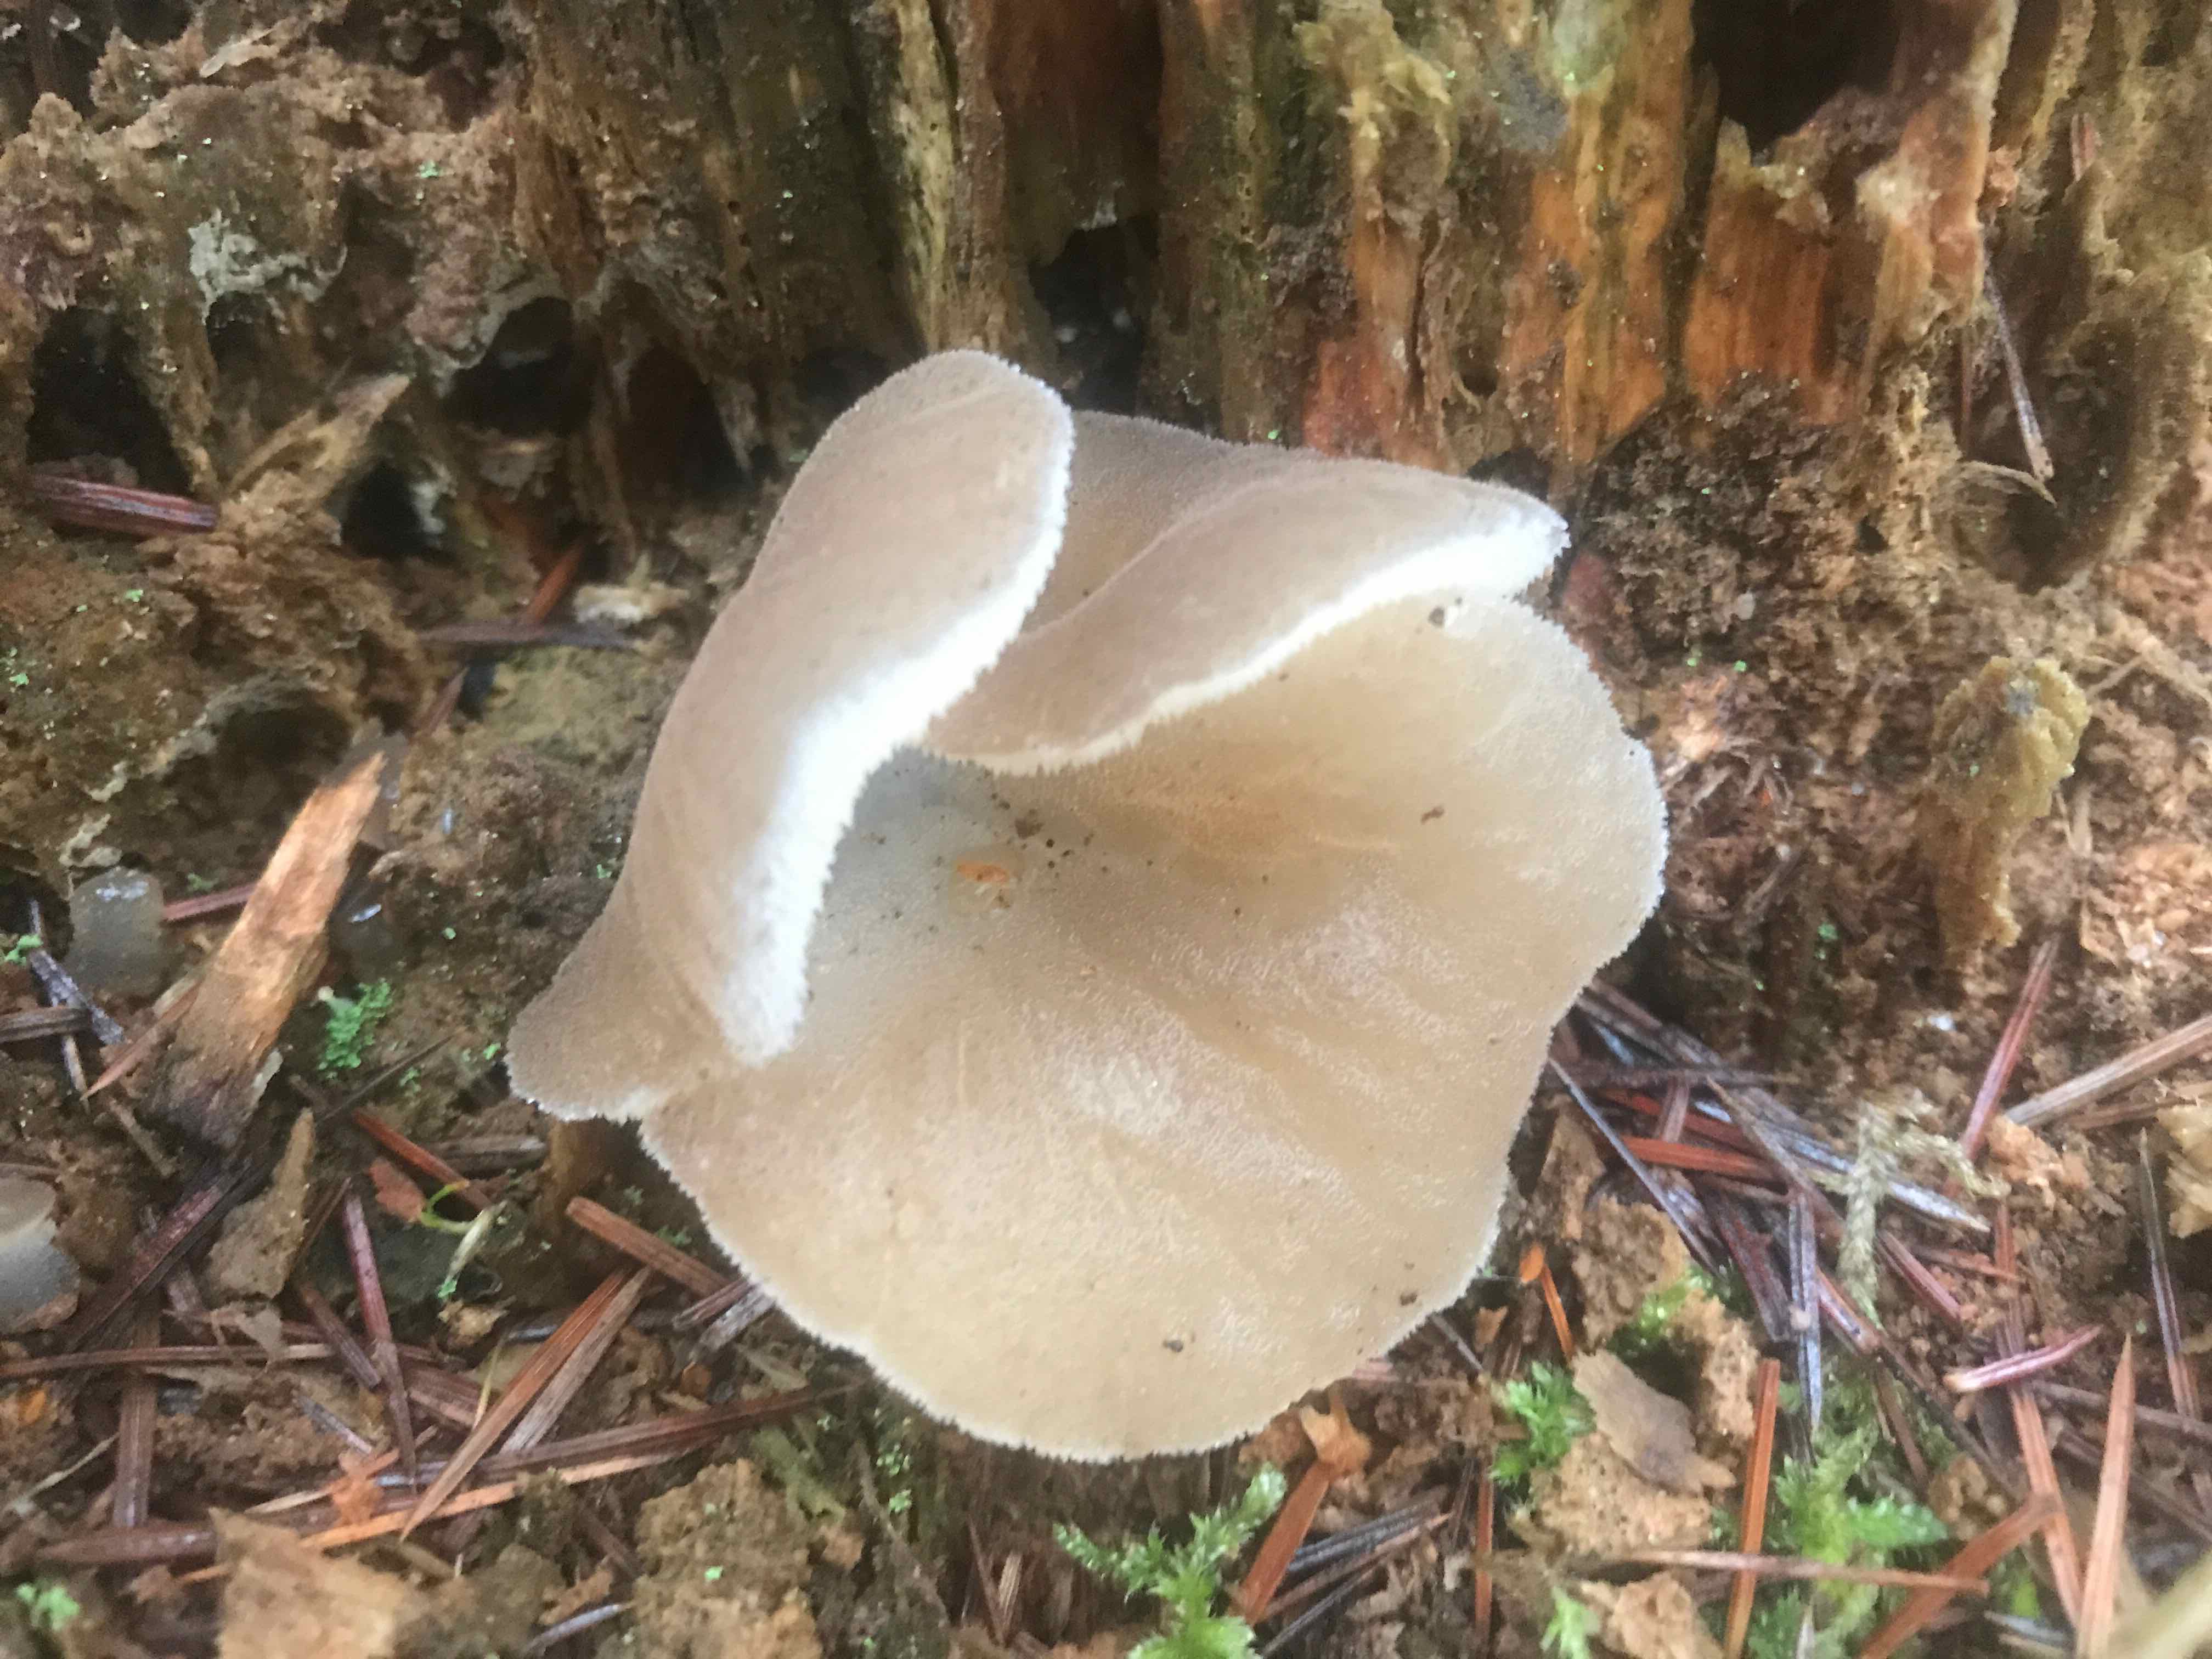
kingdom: Fungi
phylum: Basidiomycota
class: Agaricomycetes
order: Auriculariales
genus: Pseudohydnum
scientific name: Pseudohydnum gelatinosum
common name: bævretand
